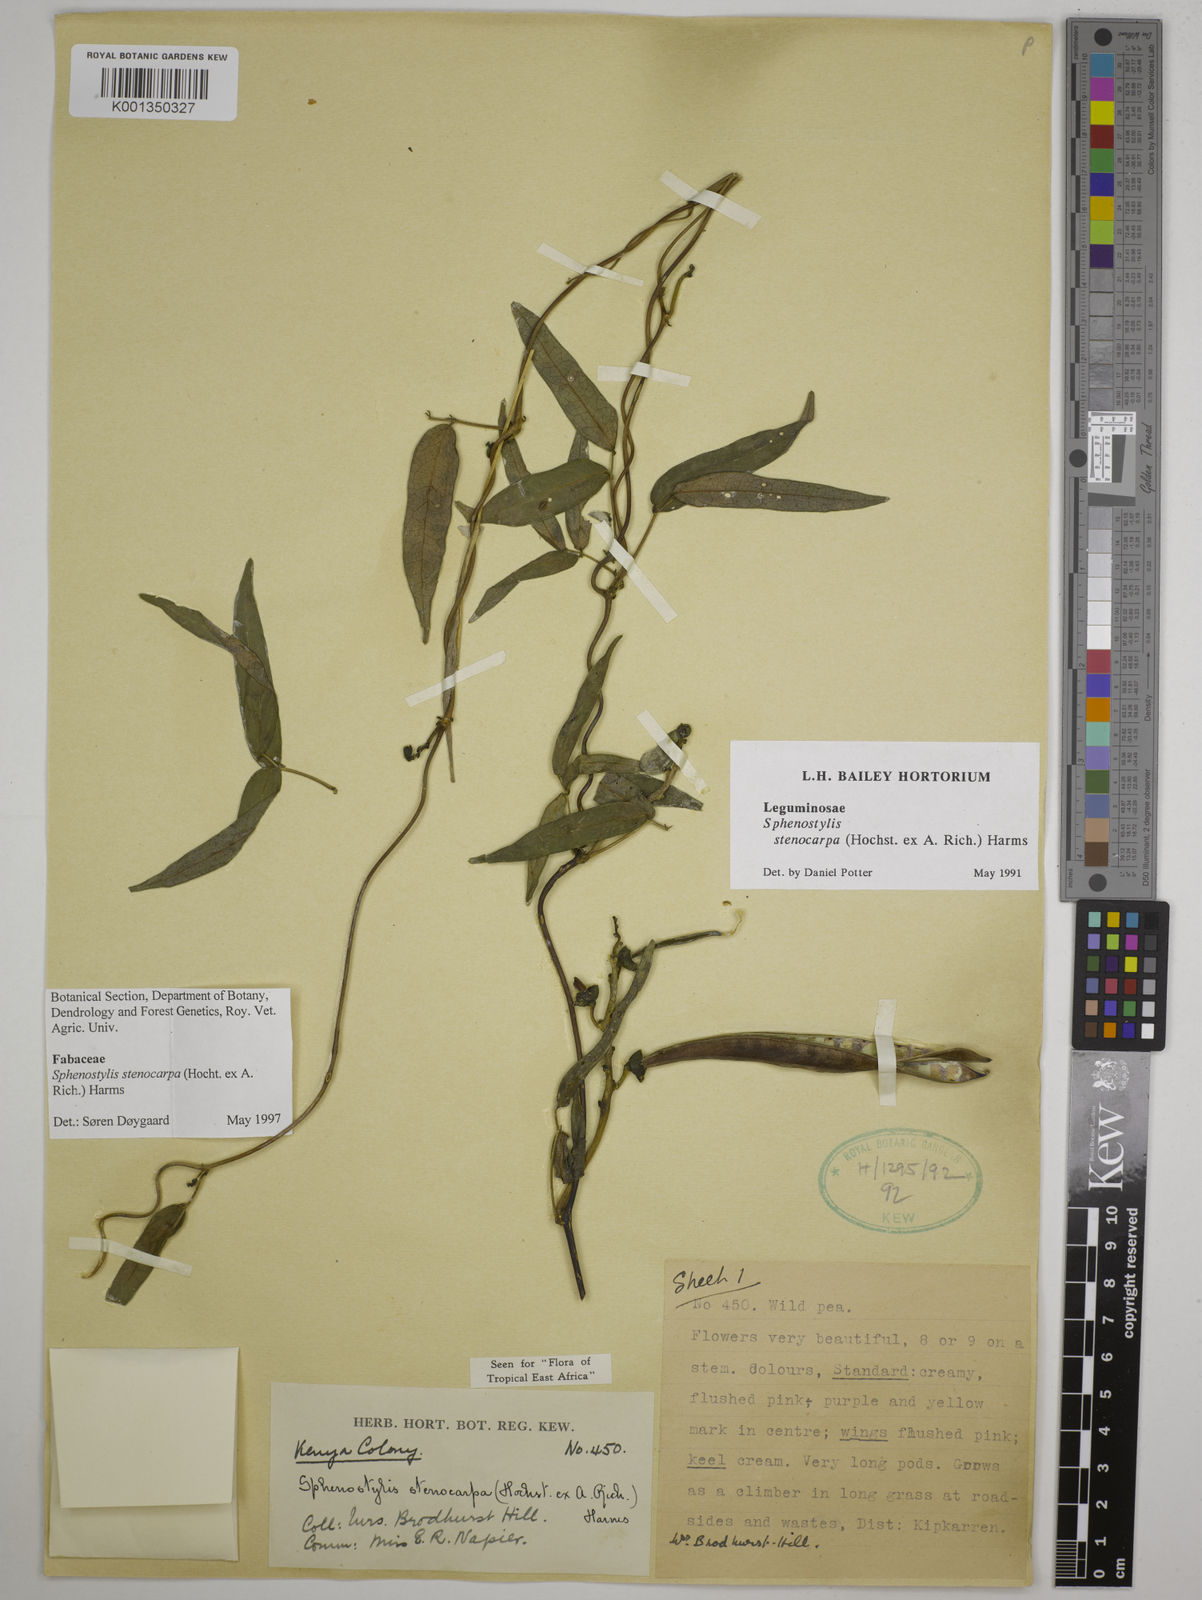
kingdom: Plantae
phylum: Tracheophyta
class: Magnoliopsida
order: Fabales
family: Fabaceae
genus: Sphenostylis
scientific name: Sphenostylis stenocarpa
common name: Yam-pea
